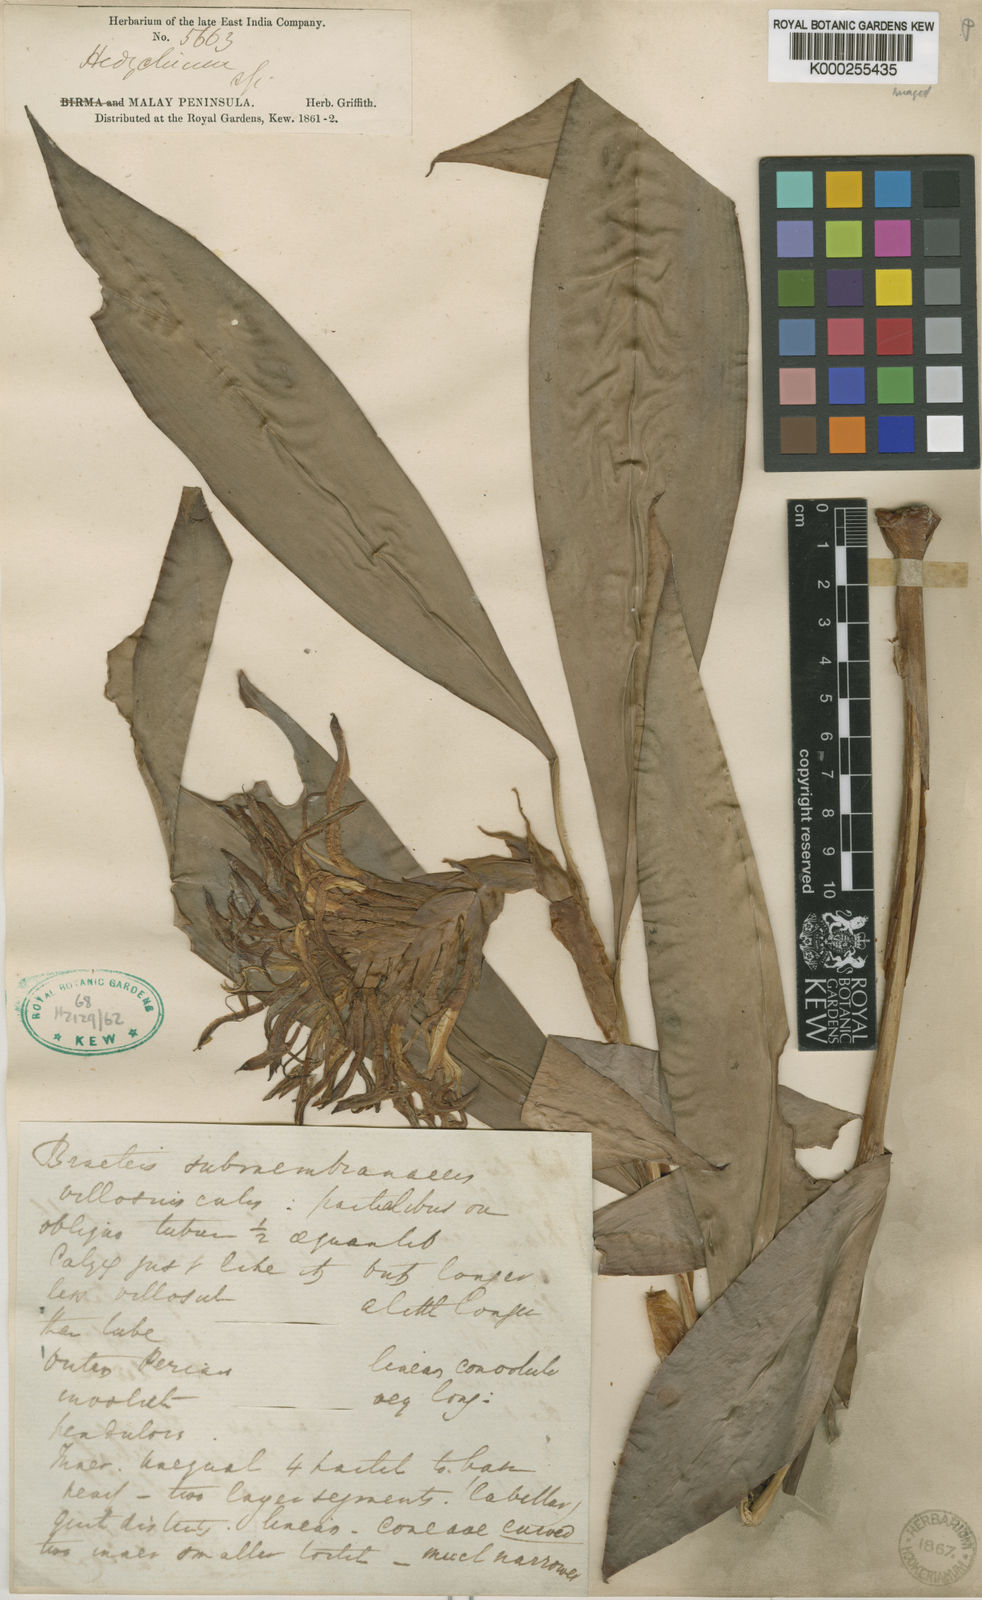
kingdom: Plantae
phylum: Tracheophyta
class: Liliopsida
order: Zingiberales
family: Zingiberaceae
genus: Hedychium
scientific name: Hedychium longicornutum
